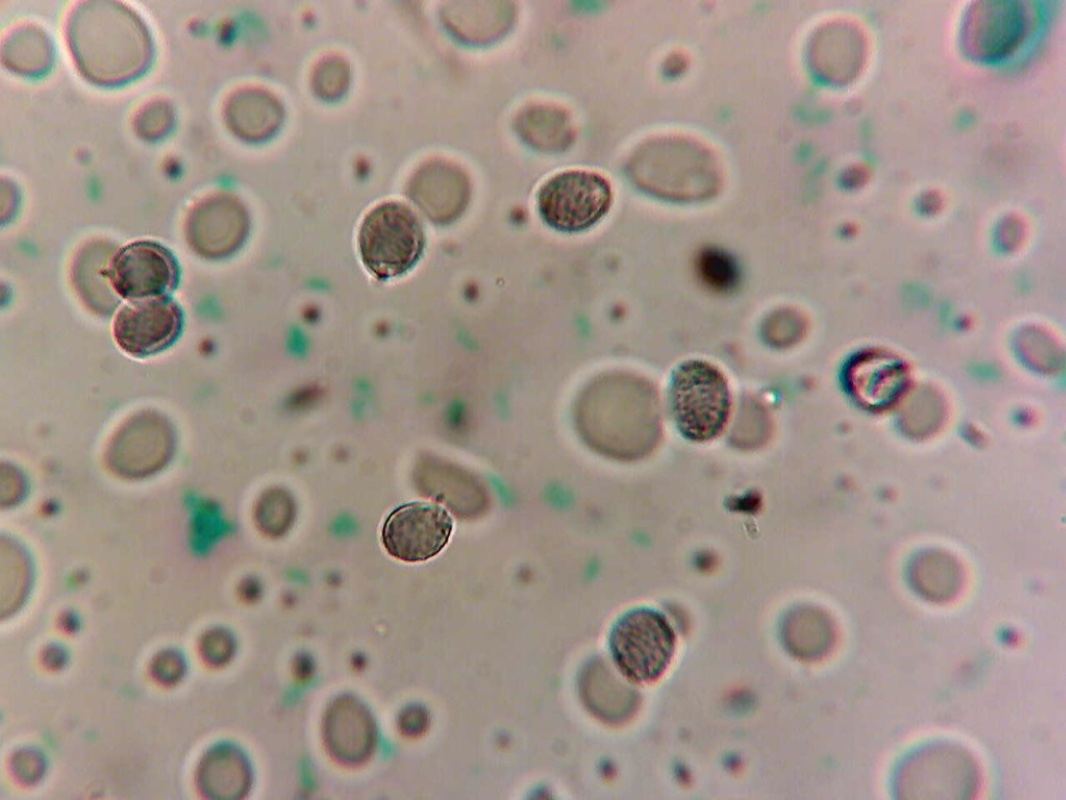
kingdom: Fungi
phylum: Basidiomycota
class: Agaricomycetes
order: Russulales
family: Russulaceae
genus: Russula
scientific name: Russula nigrifacta
